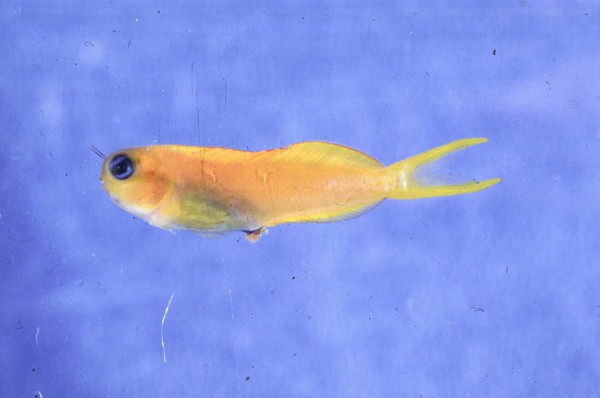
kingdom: Animalia
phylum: Chordata
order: Perciformes
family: Blenniidae
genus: Ecsenius
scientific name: Ecsenius midas
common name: Golden blenny
